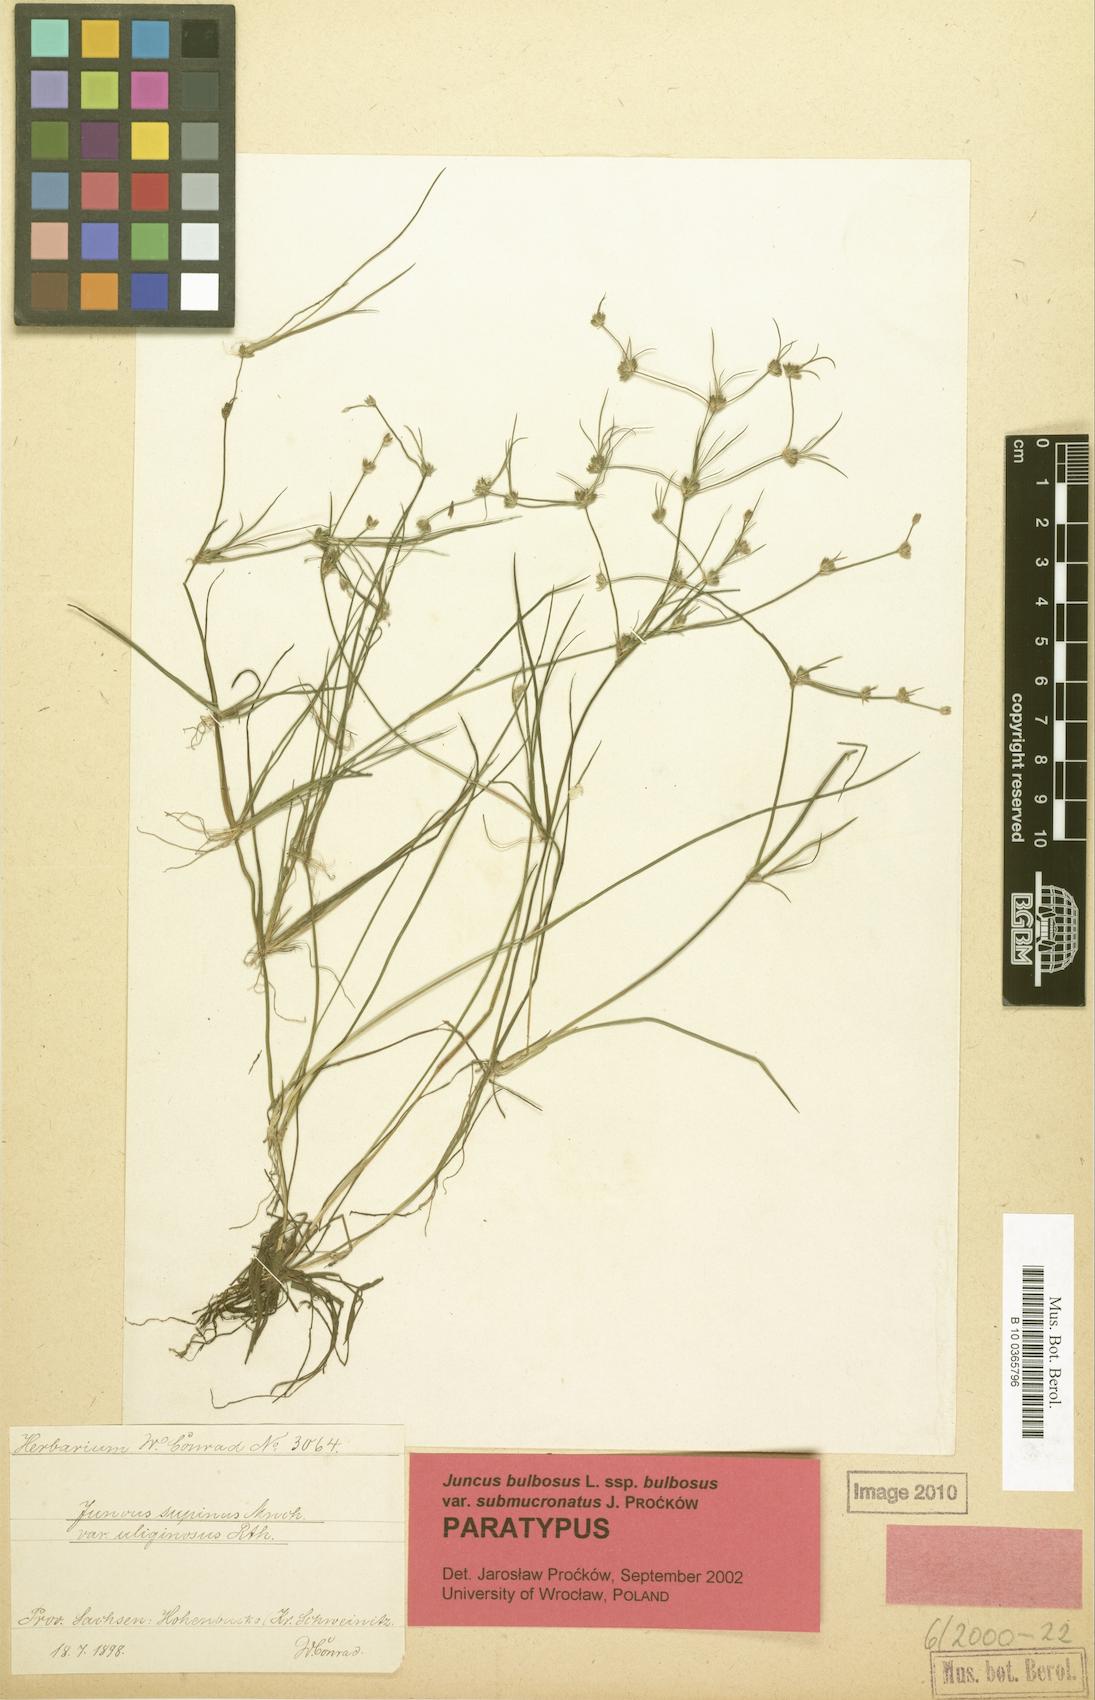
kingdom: Plantae
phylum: Tracheophyta
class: Liliopsida
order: Poales
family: Juncaceae
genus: Juncus
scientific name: Juncus bulbosus
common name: Bulbous rush
